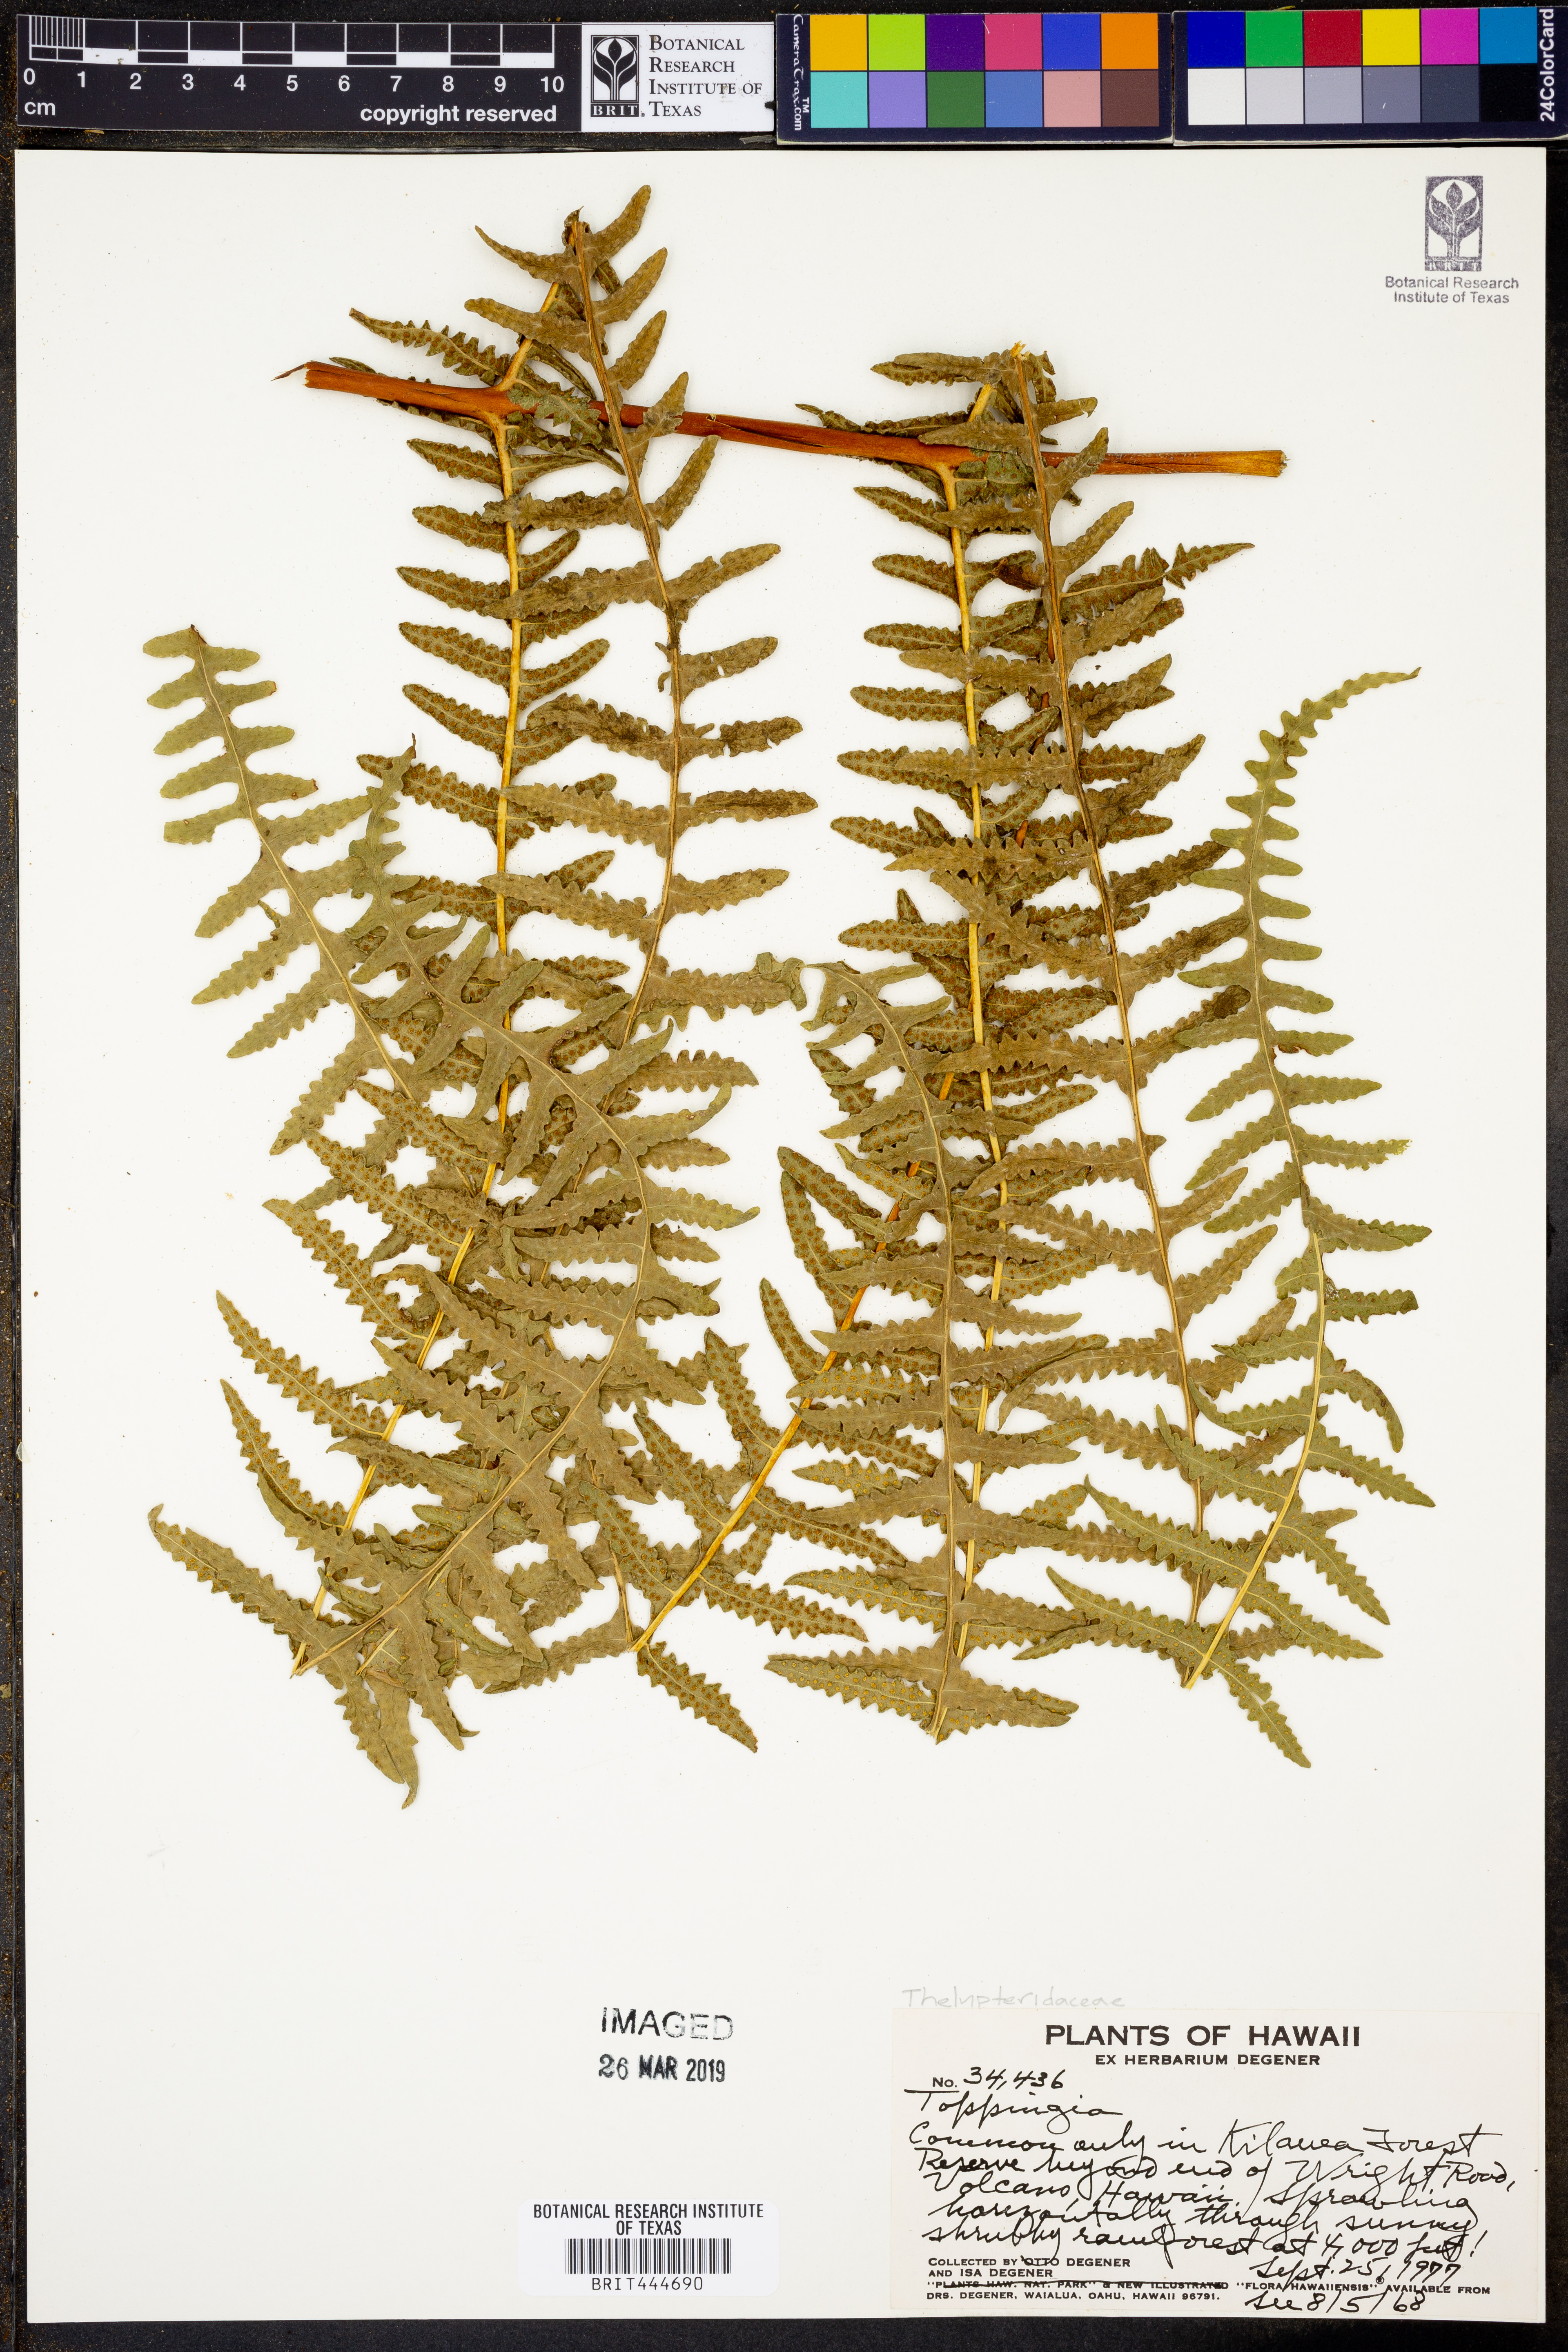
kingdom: Plantae
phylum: Tracheophyta
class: Polypodiopsida
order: Polypodiales
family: Thelypteridaceae
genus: Phegopteris
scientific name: Phegopteris
